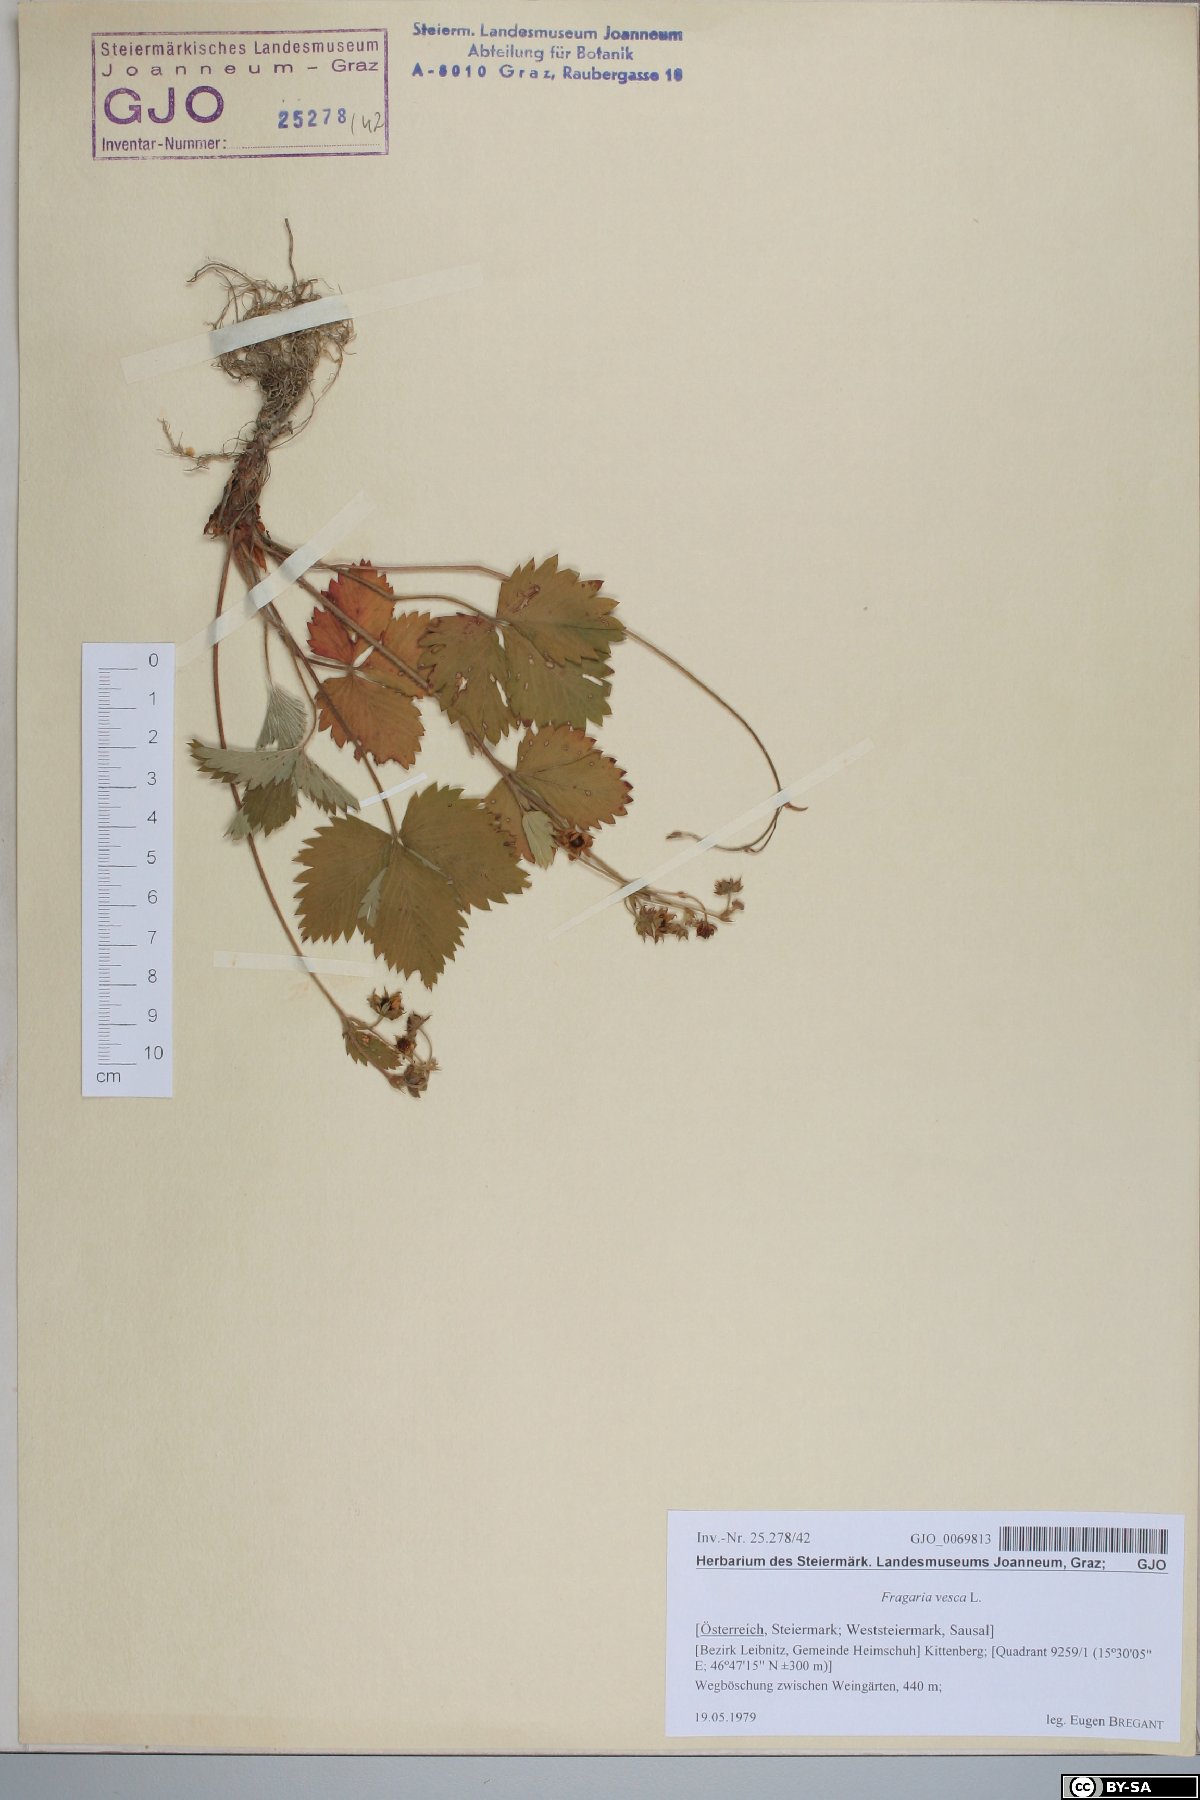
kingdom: Plantae
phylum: Tracheophyta
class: Magnoliopsida
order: Rosales
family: Rosaceae
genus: Fragaria
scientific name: Fragaria vesca
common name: Wild strawberry
